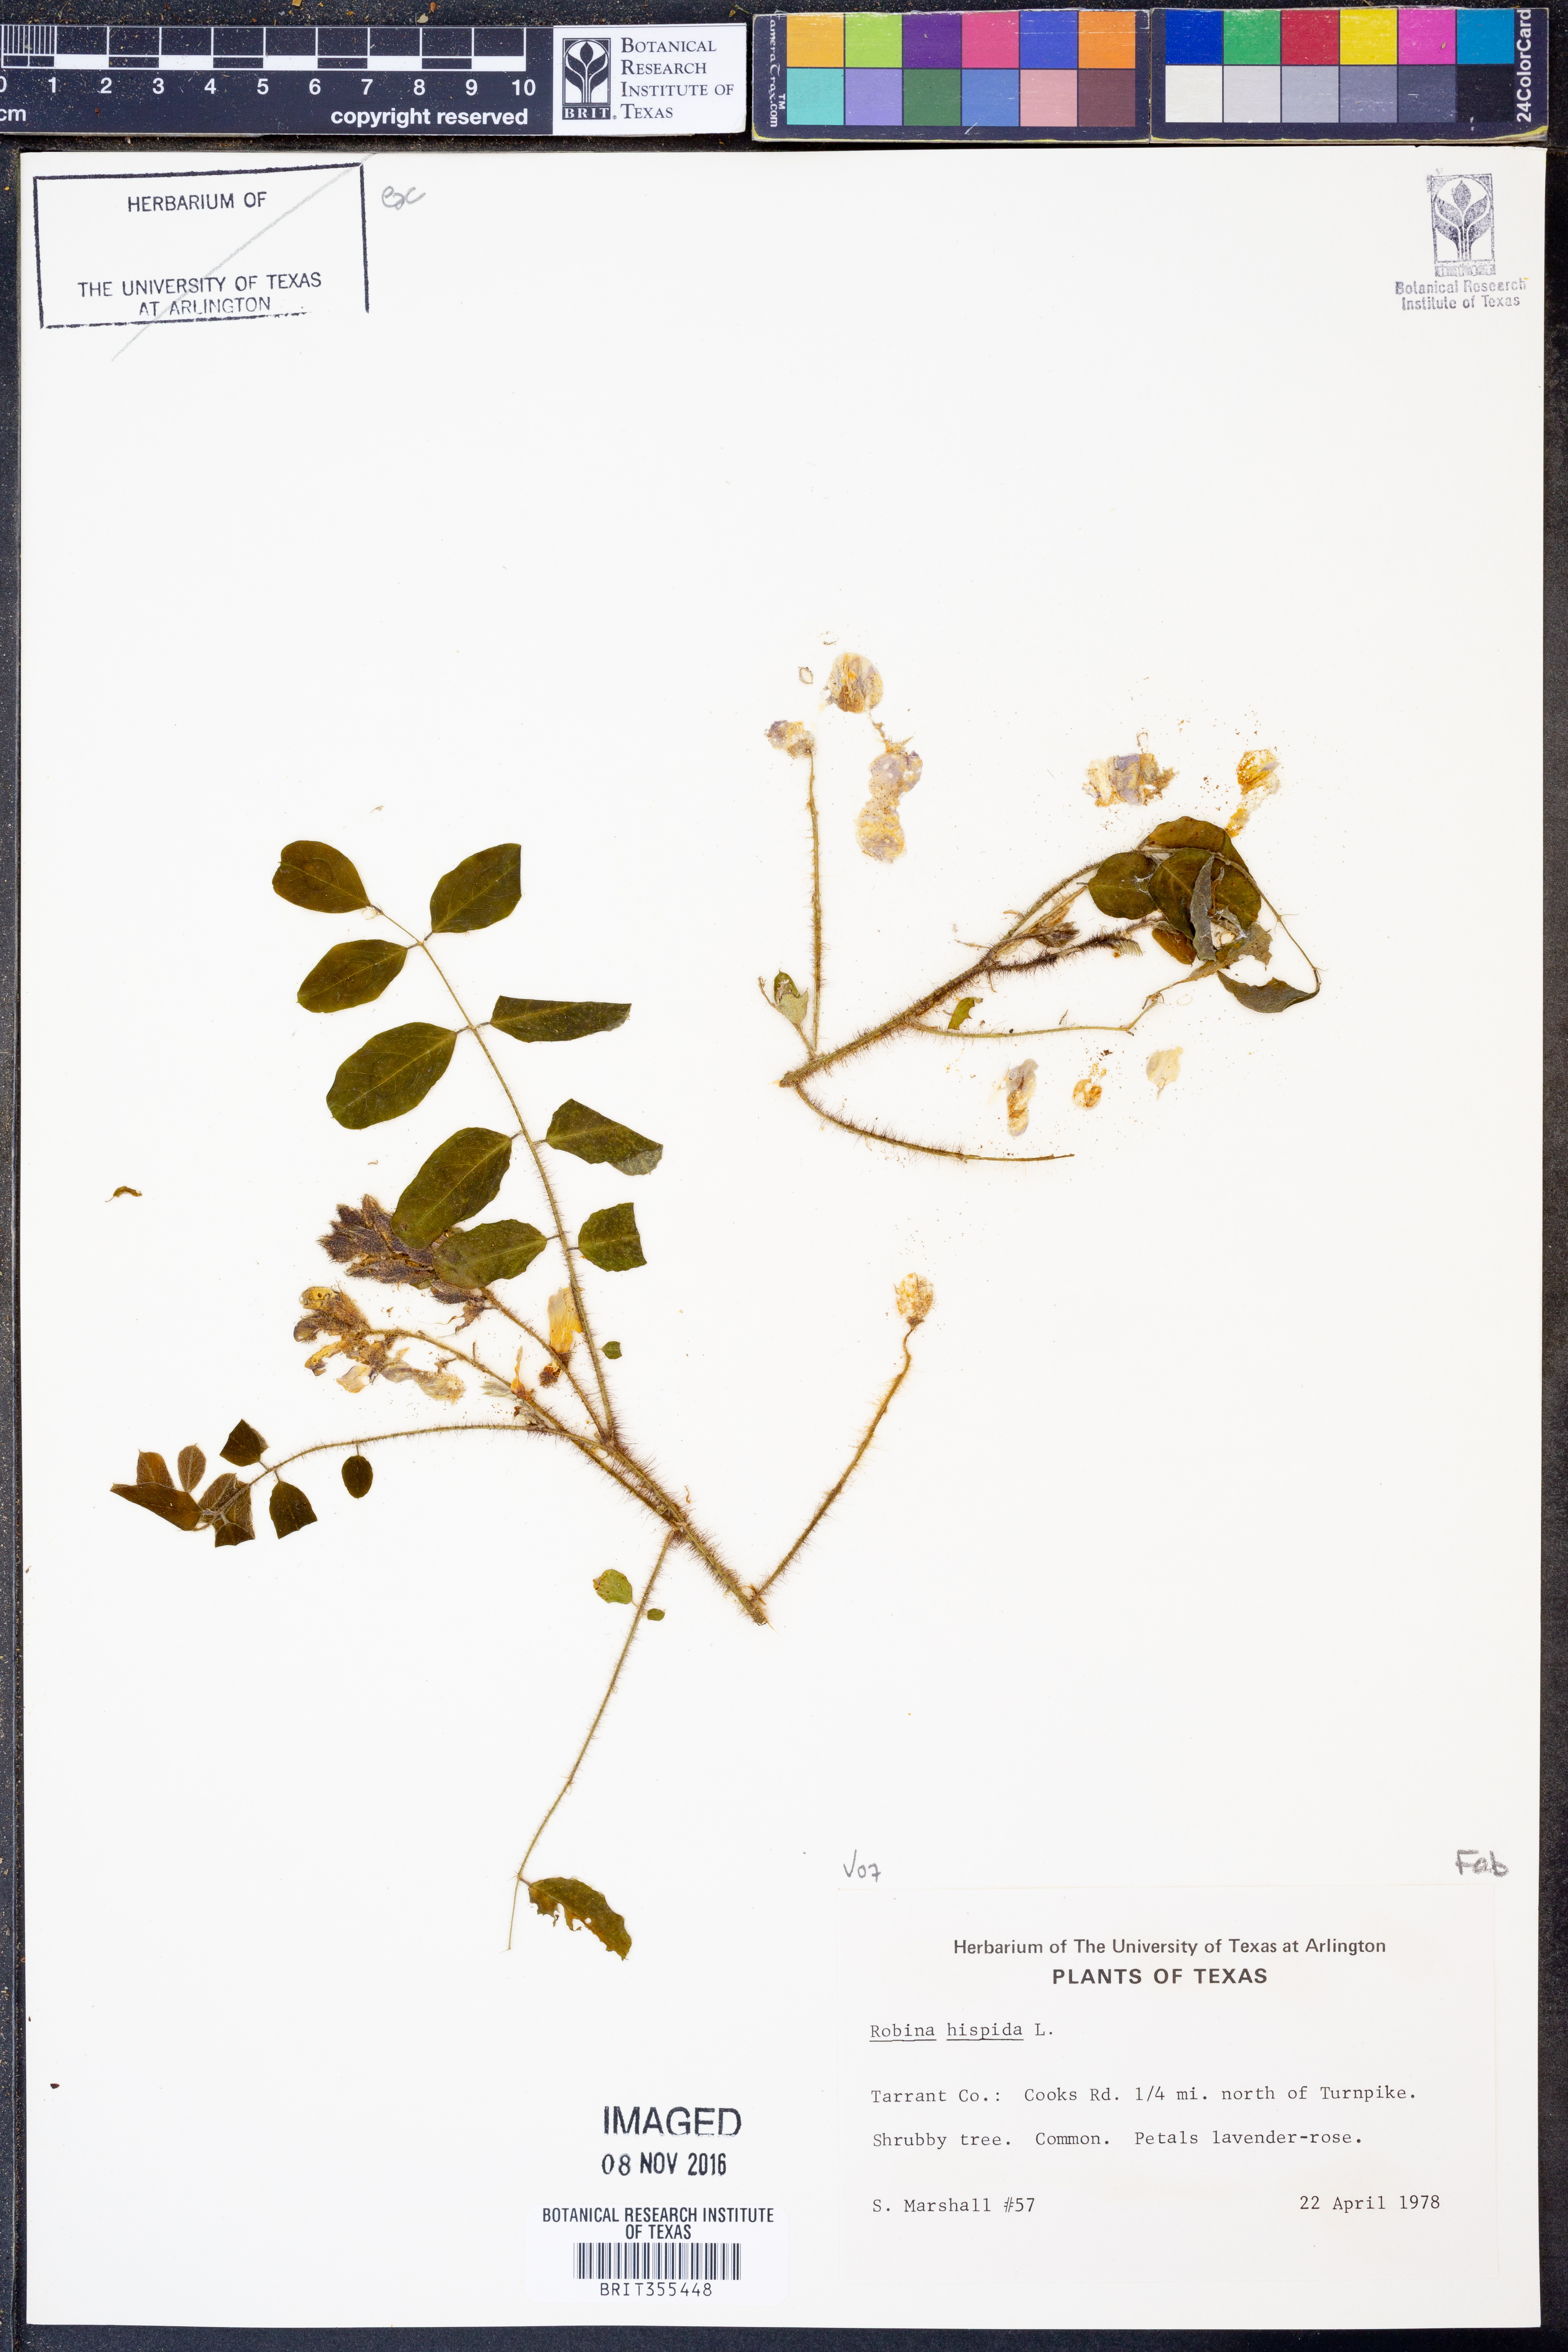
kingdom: Plantae
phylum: Tracheophyta
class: Magnoliopsida
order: Fabales
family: Fabaceae
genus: Robinia
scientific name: Robinia hispida
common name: Bristly locust
